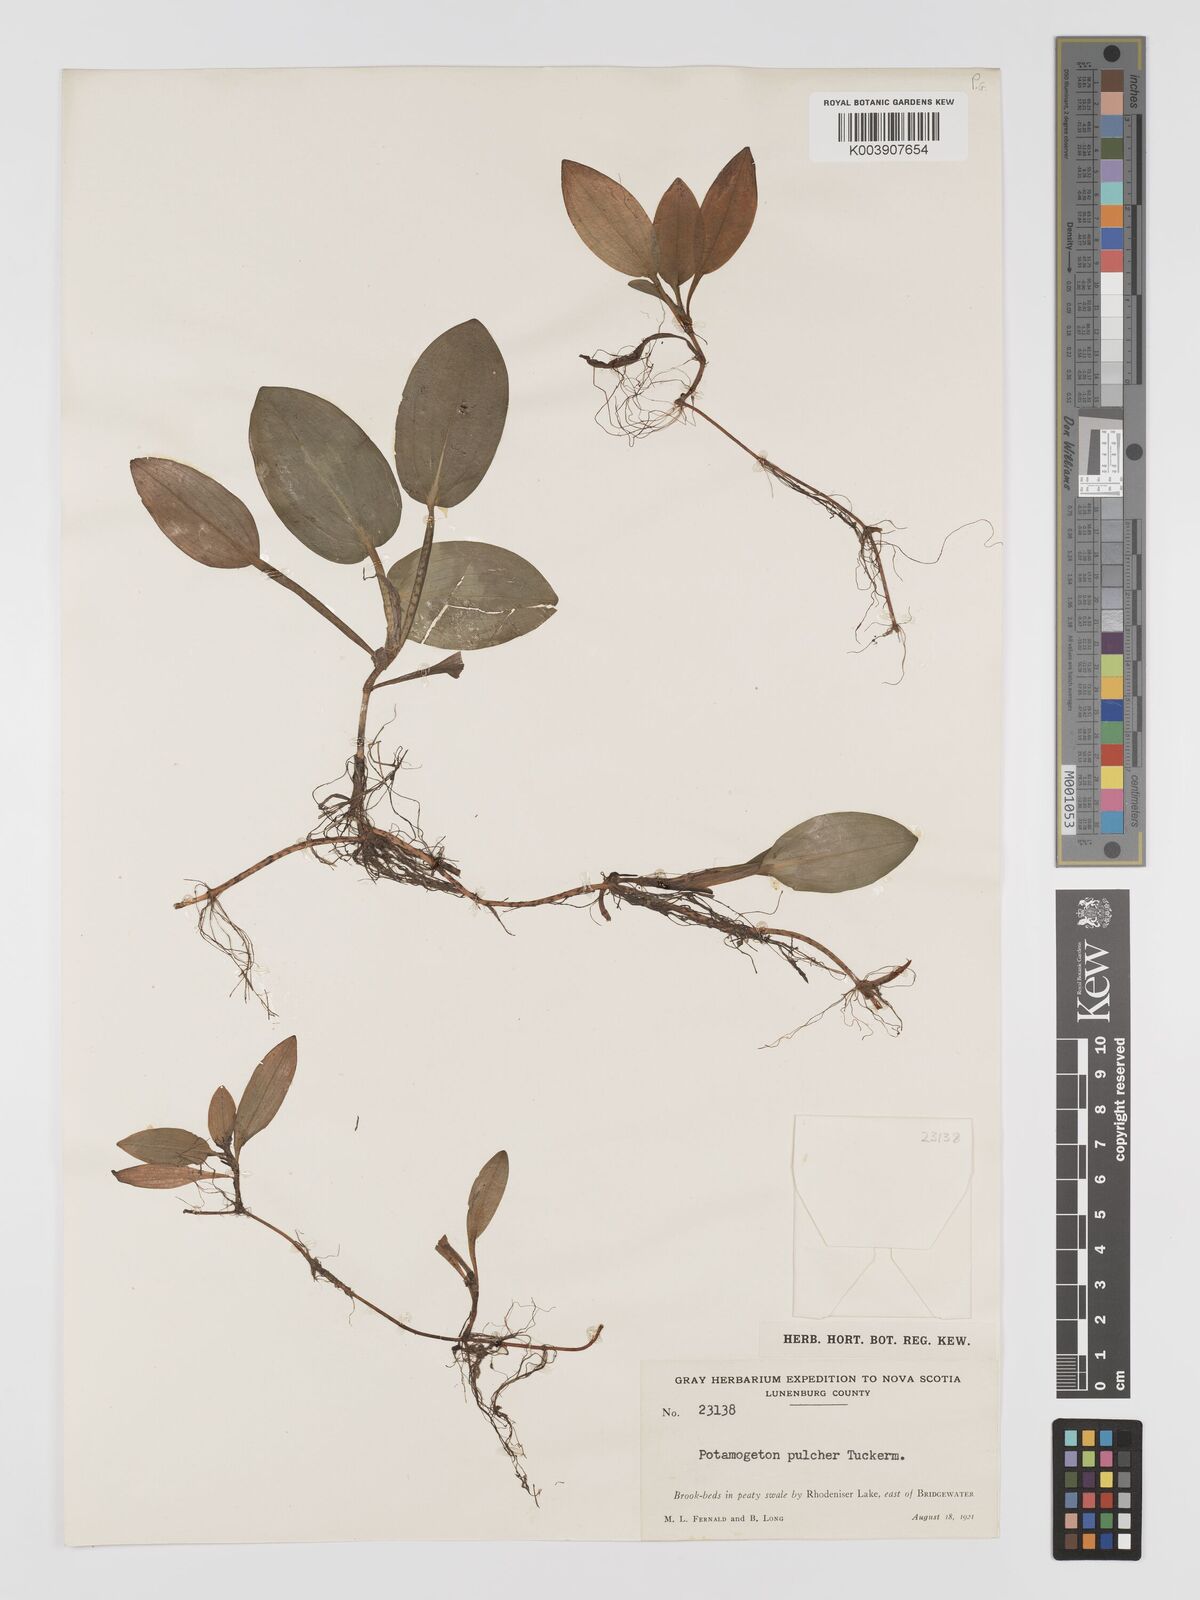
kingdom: Plantae
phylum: Tracheophyta
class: Liliopsida
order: Alismatales
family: Potamogetonaceae
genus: Potamogeton
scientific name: Potamogeton pulcher
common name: Heart-leaved pondweed
